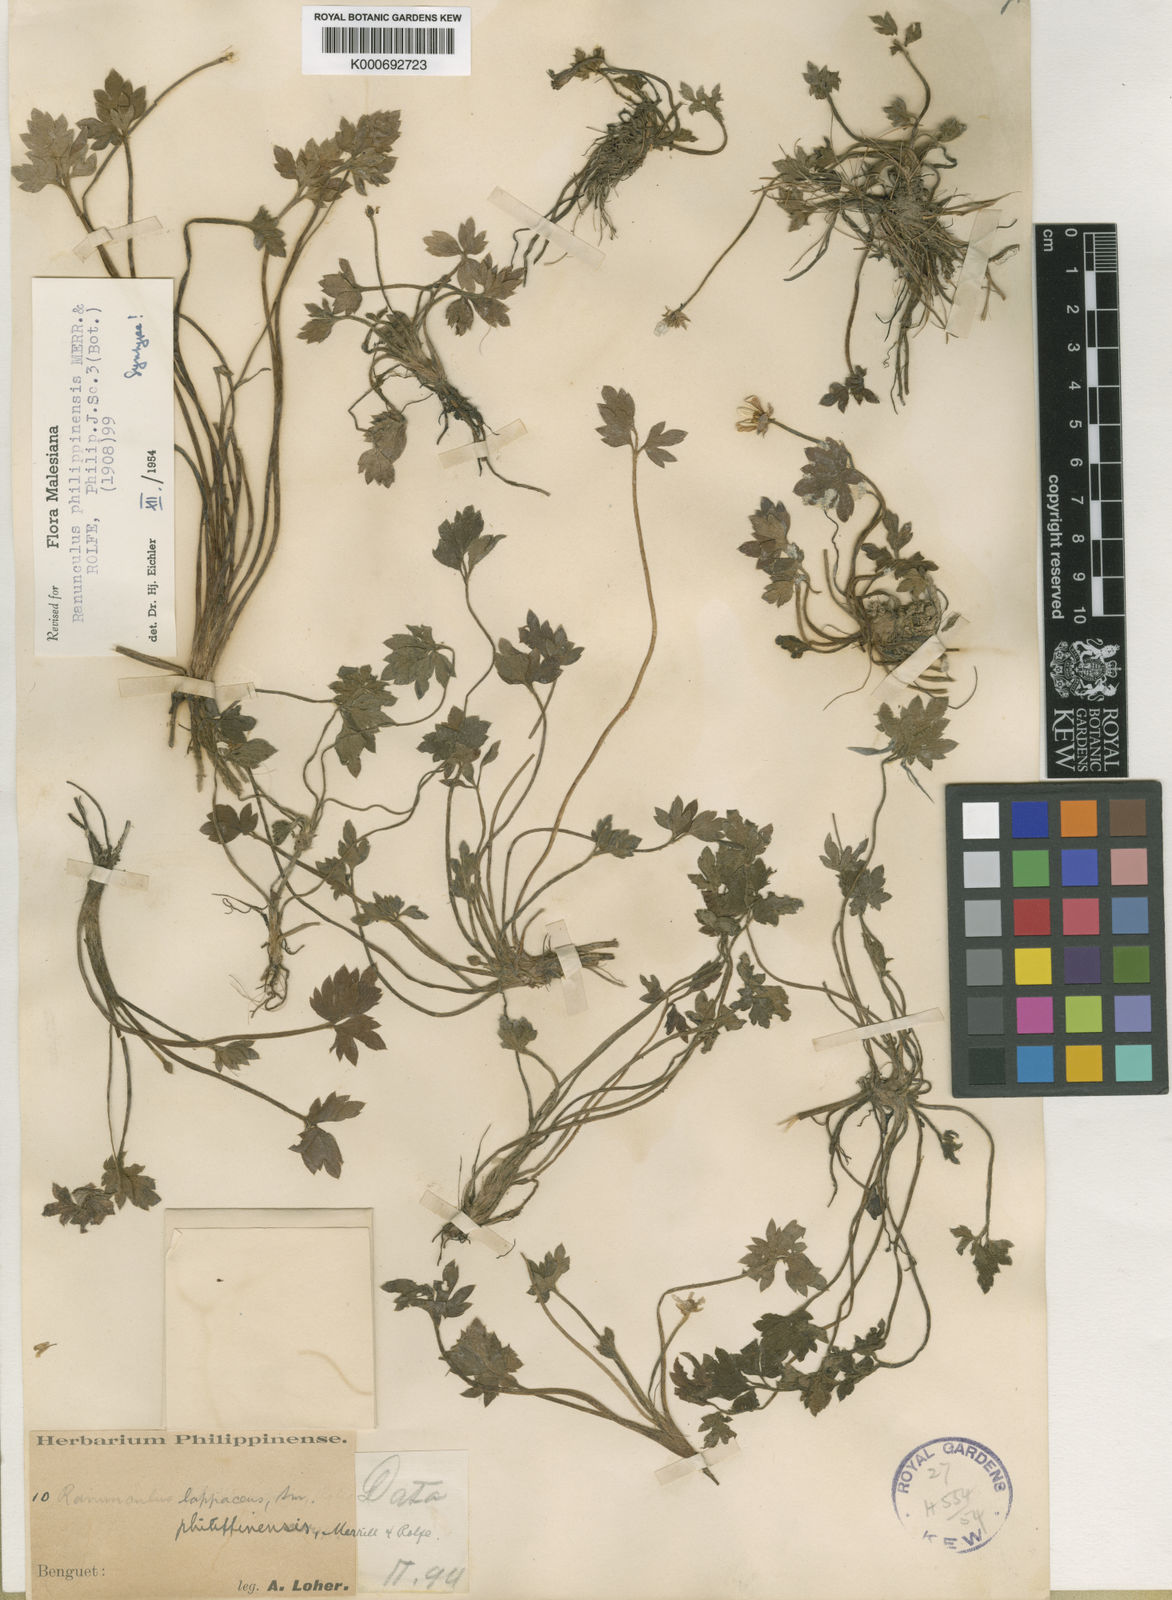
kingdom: Plantae
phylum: Tracheophyta
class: Magnoliopsida
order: Ranunculales
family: Ranunculaceae
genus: Ranunculus
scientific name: Ranunculus philippinensis
